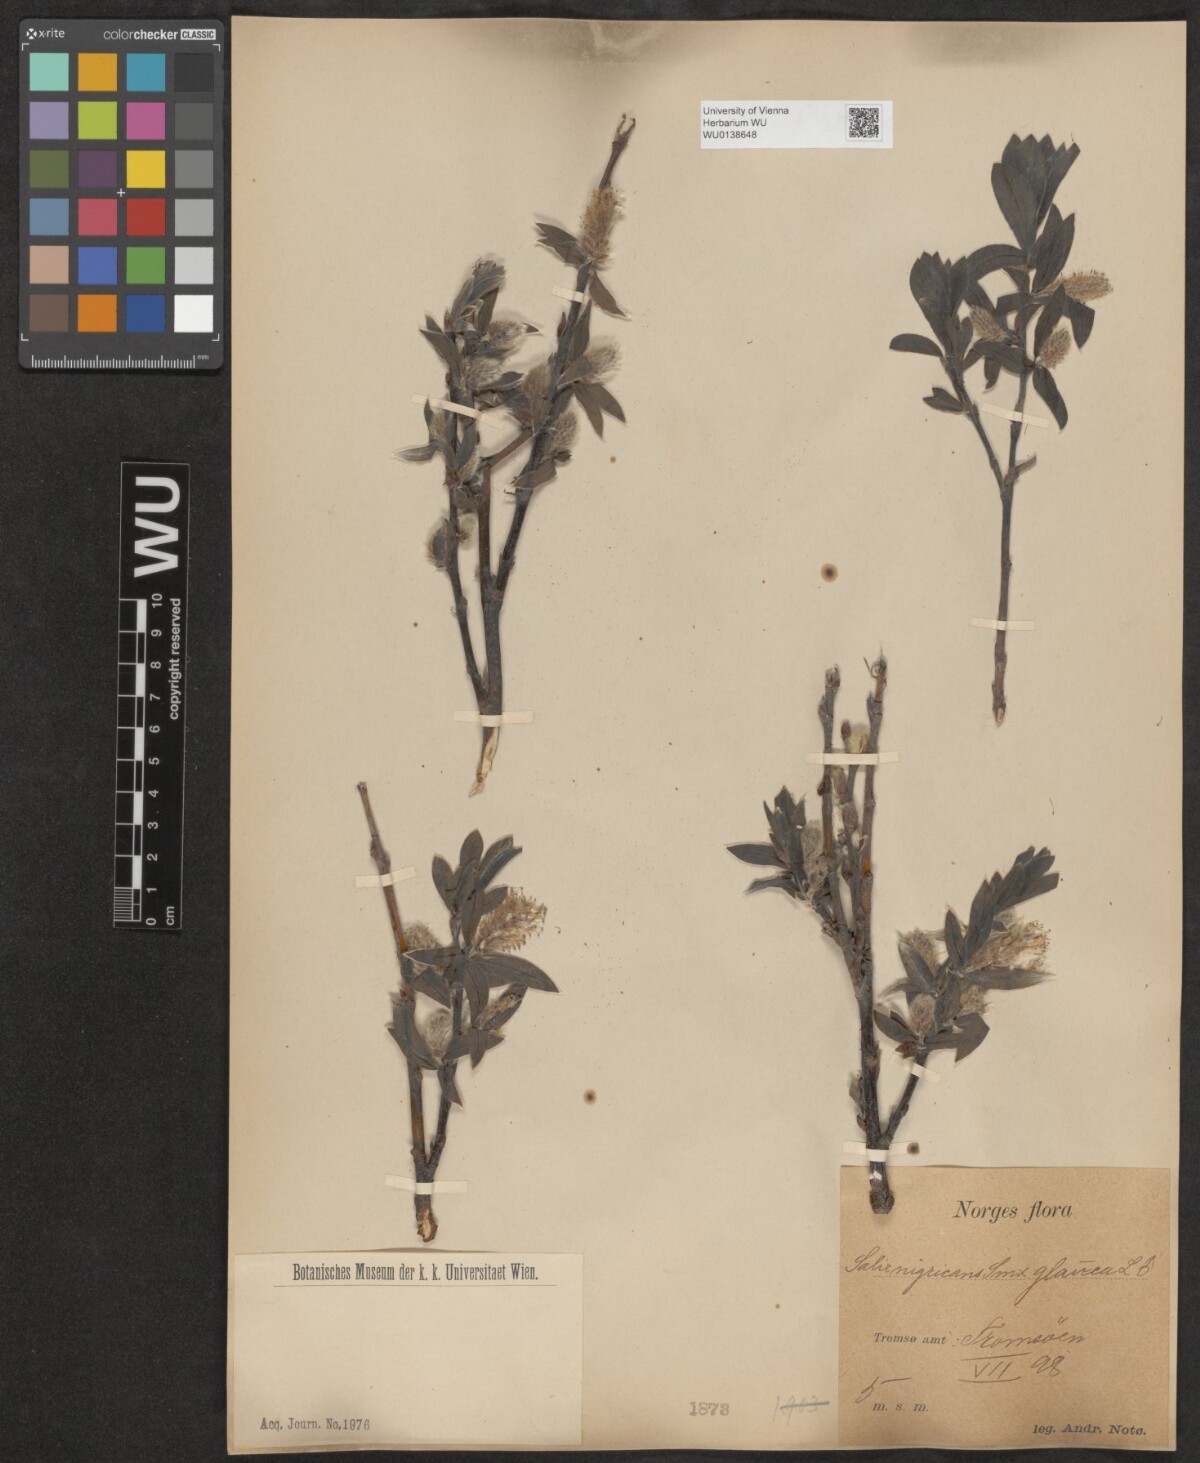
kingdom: Plantae
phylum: Tracheophyta
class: Magnoliopsida
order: Malpighiales
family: Salicaceae
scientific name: Salicaceae
